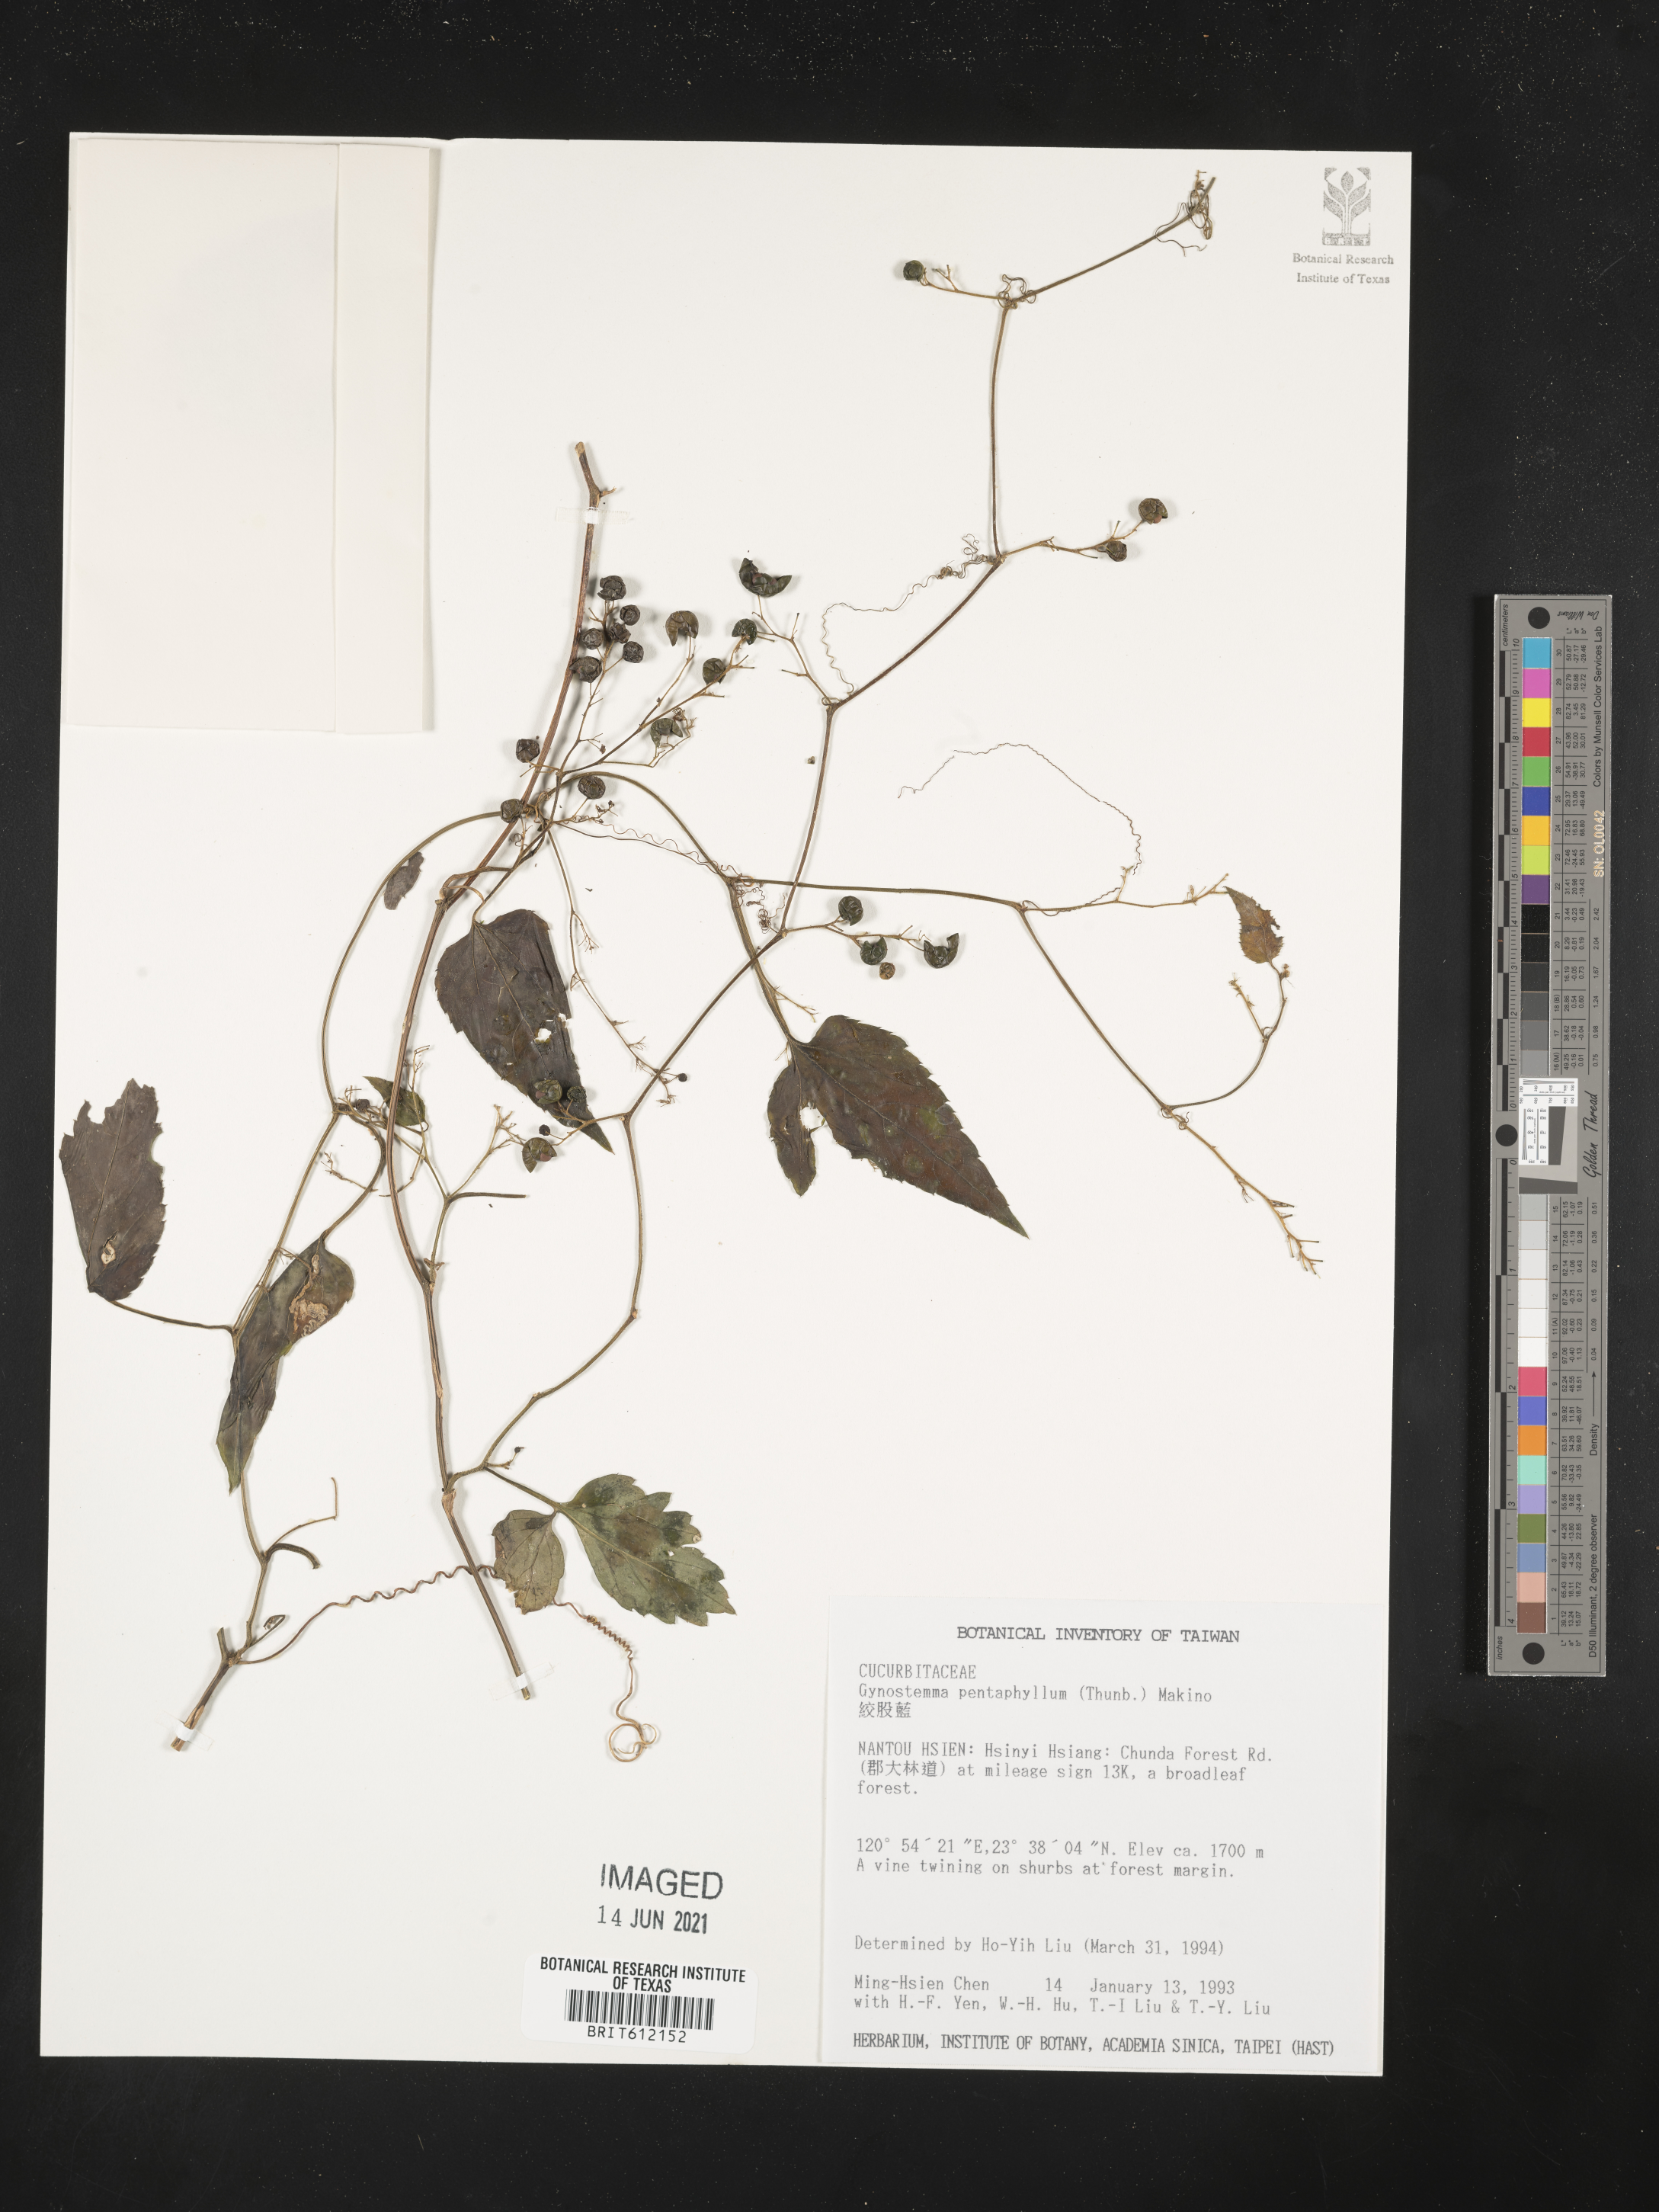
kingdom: Plantae
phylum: Tracheophyta
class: Magnoliopsida
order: Cucurbitales
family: Cucurbitaceae
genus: Gynostemma
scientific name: Gynostemma pentaphyllum
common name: Gynostemma
